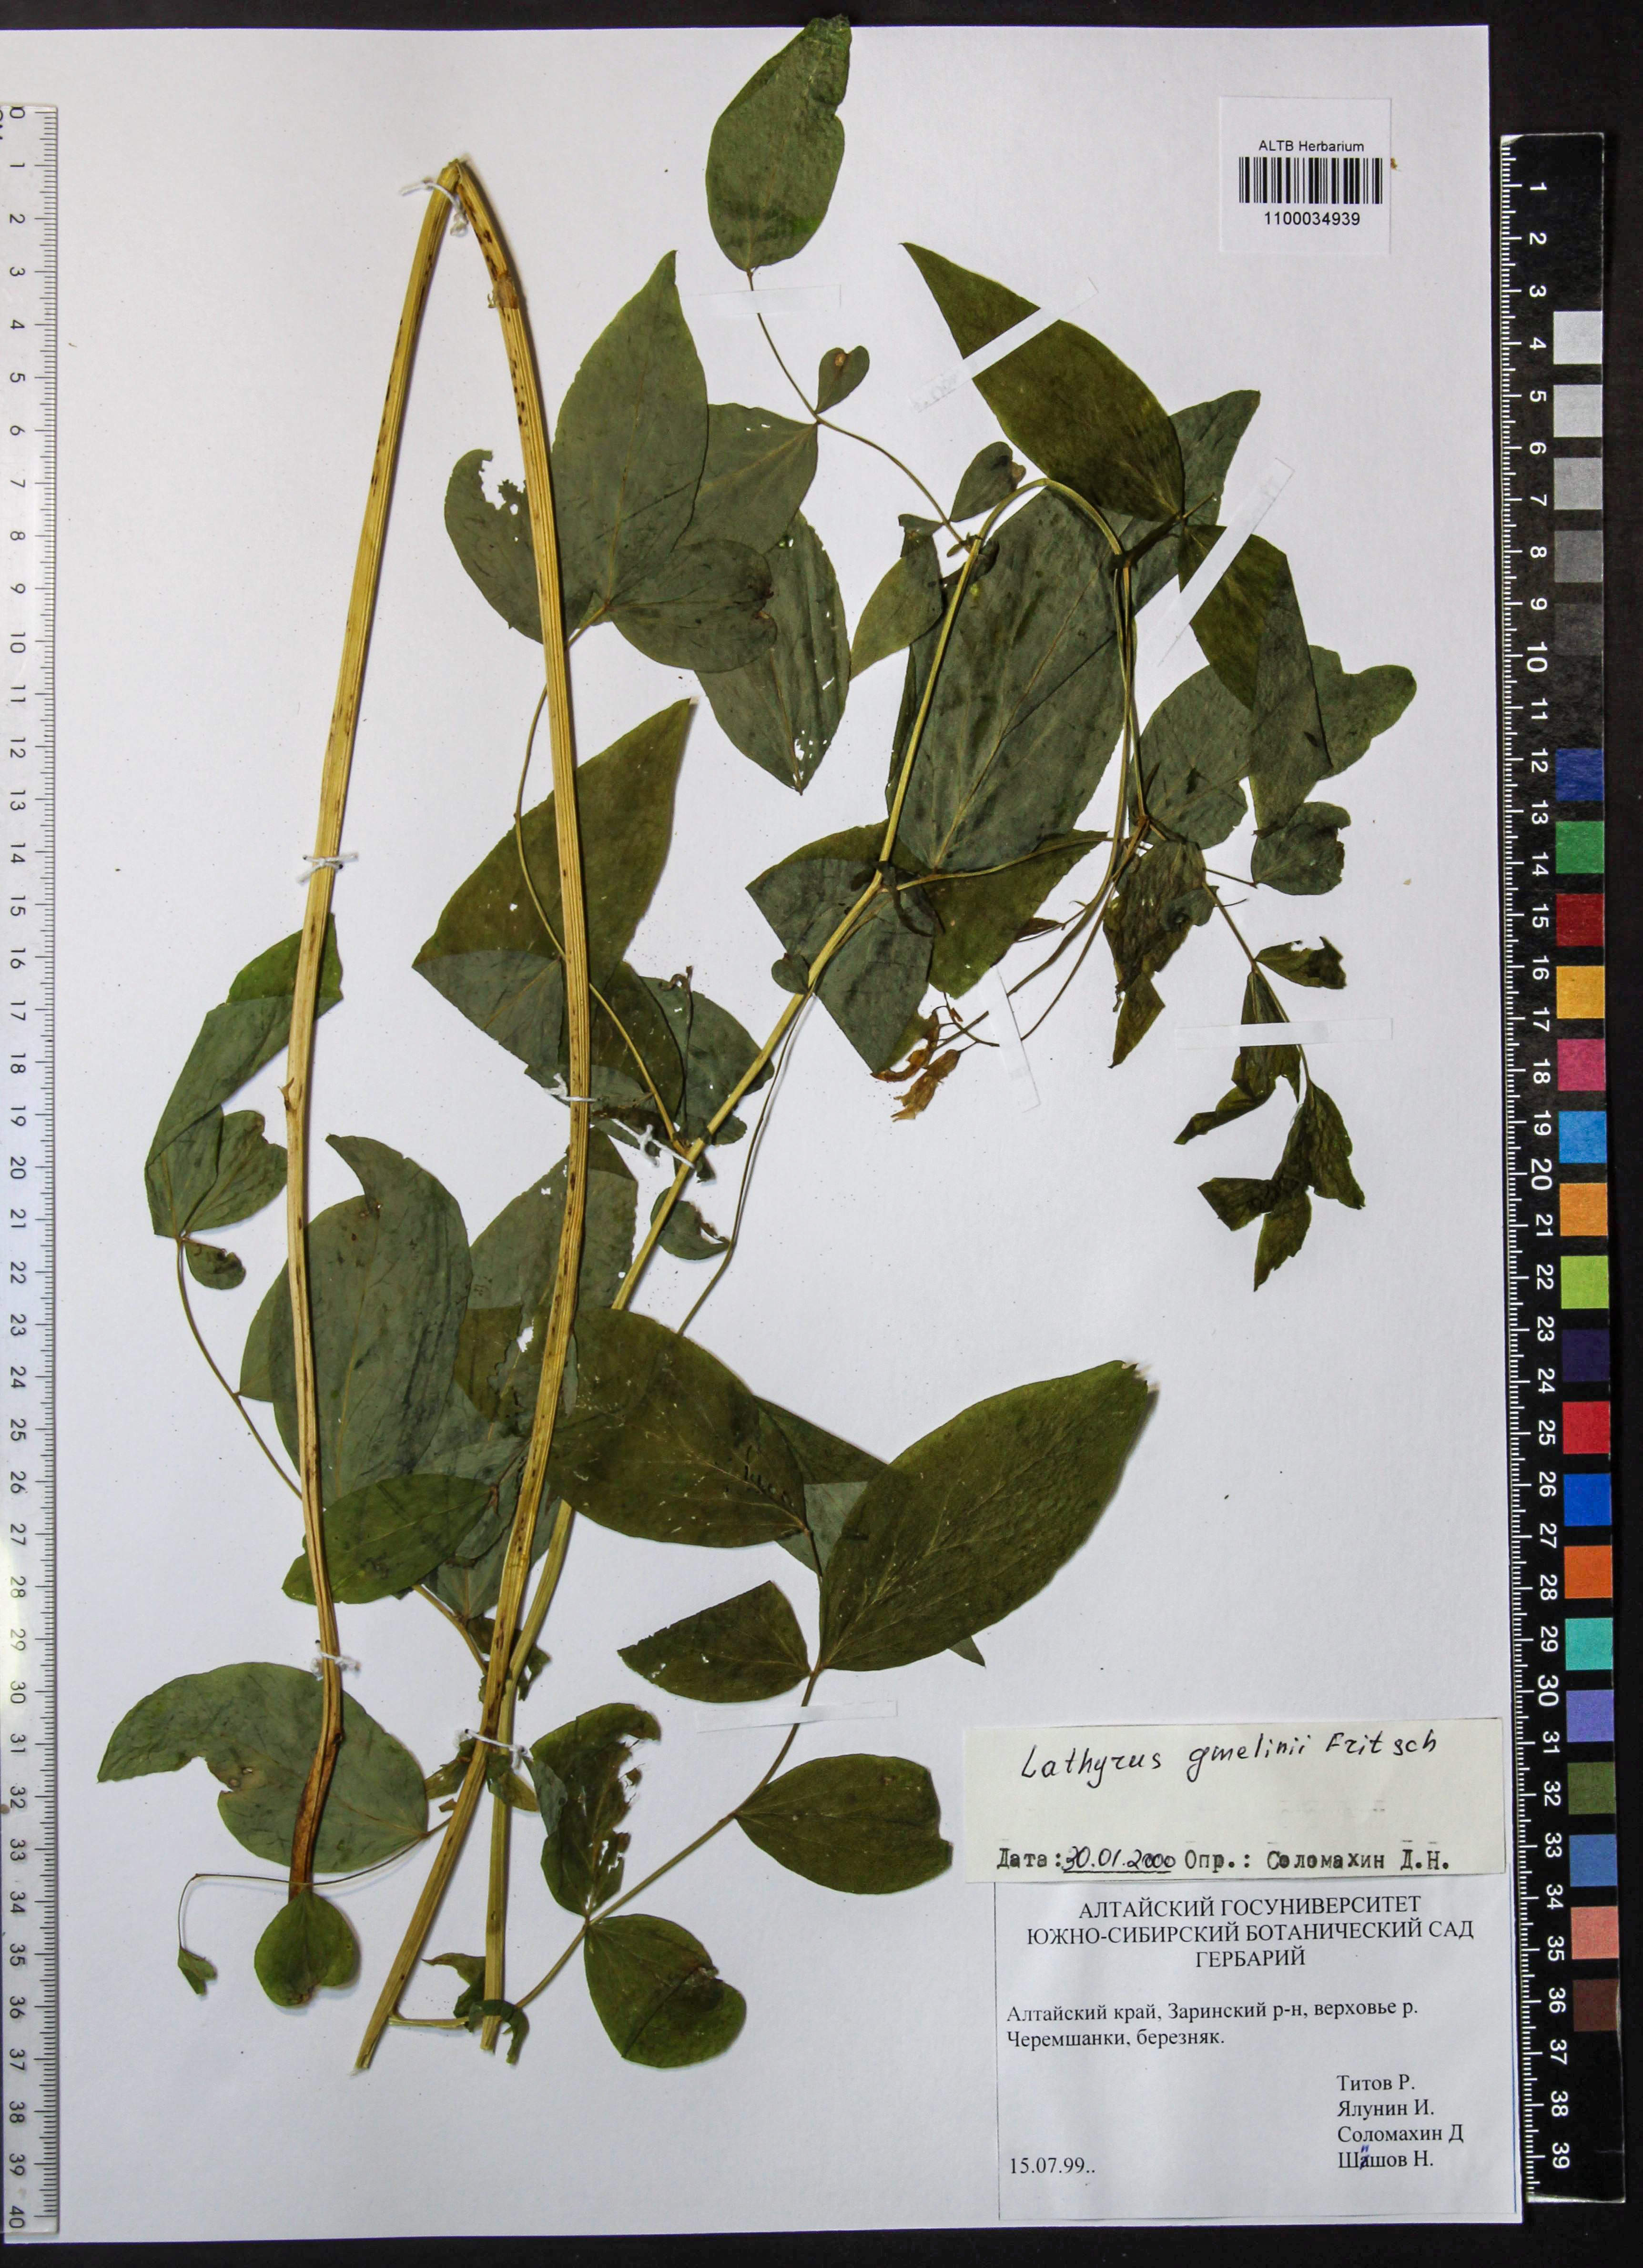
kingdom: Plantae
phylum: Tracheophyta
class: Magnoliopsida
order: Fabales
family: Fabaceae
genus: Lathyrus
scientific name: Lathyrus gmelinii
